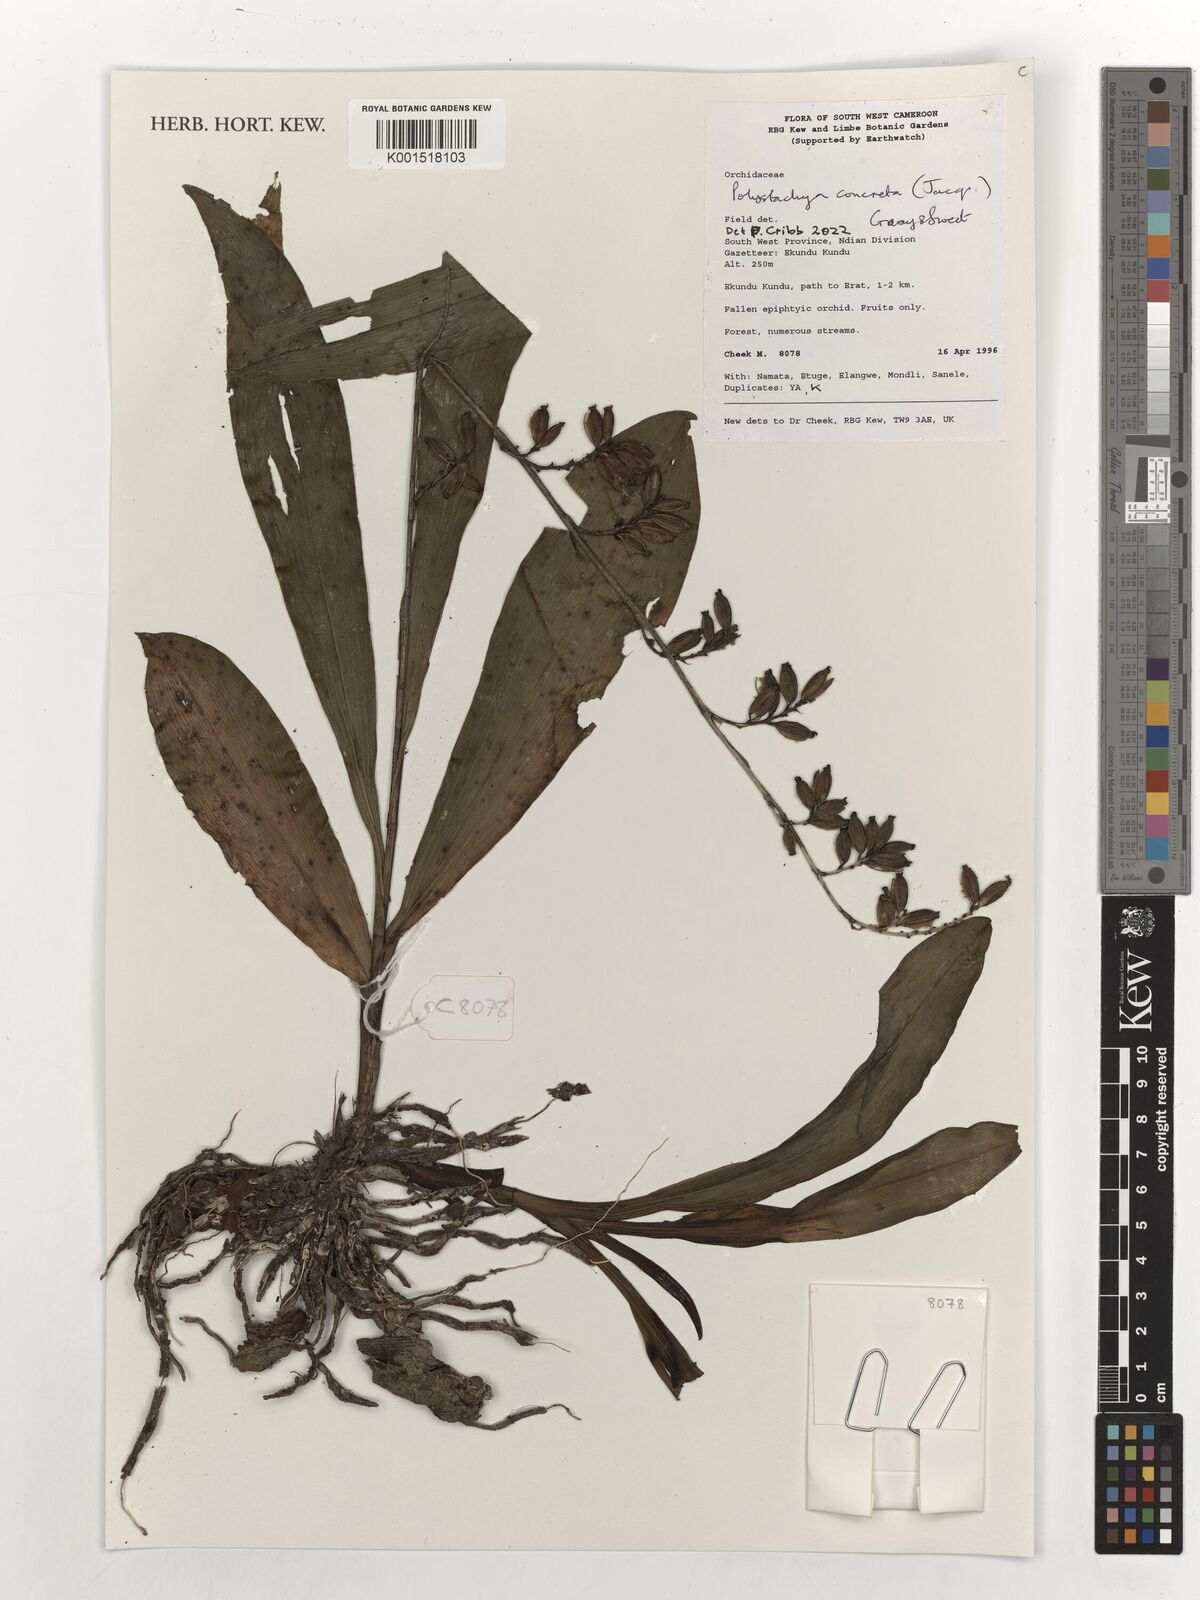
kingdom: Plantae
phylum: Tracheophyta
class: Liliopsida
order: Asparagales
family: Orchidaceae
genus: Polystachya
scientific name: Polystachya concreta
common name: Greater yellowspike orchid
